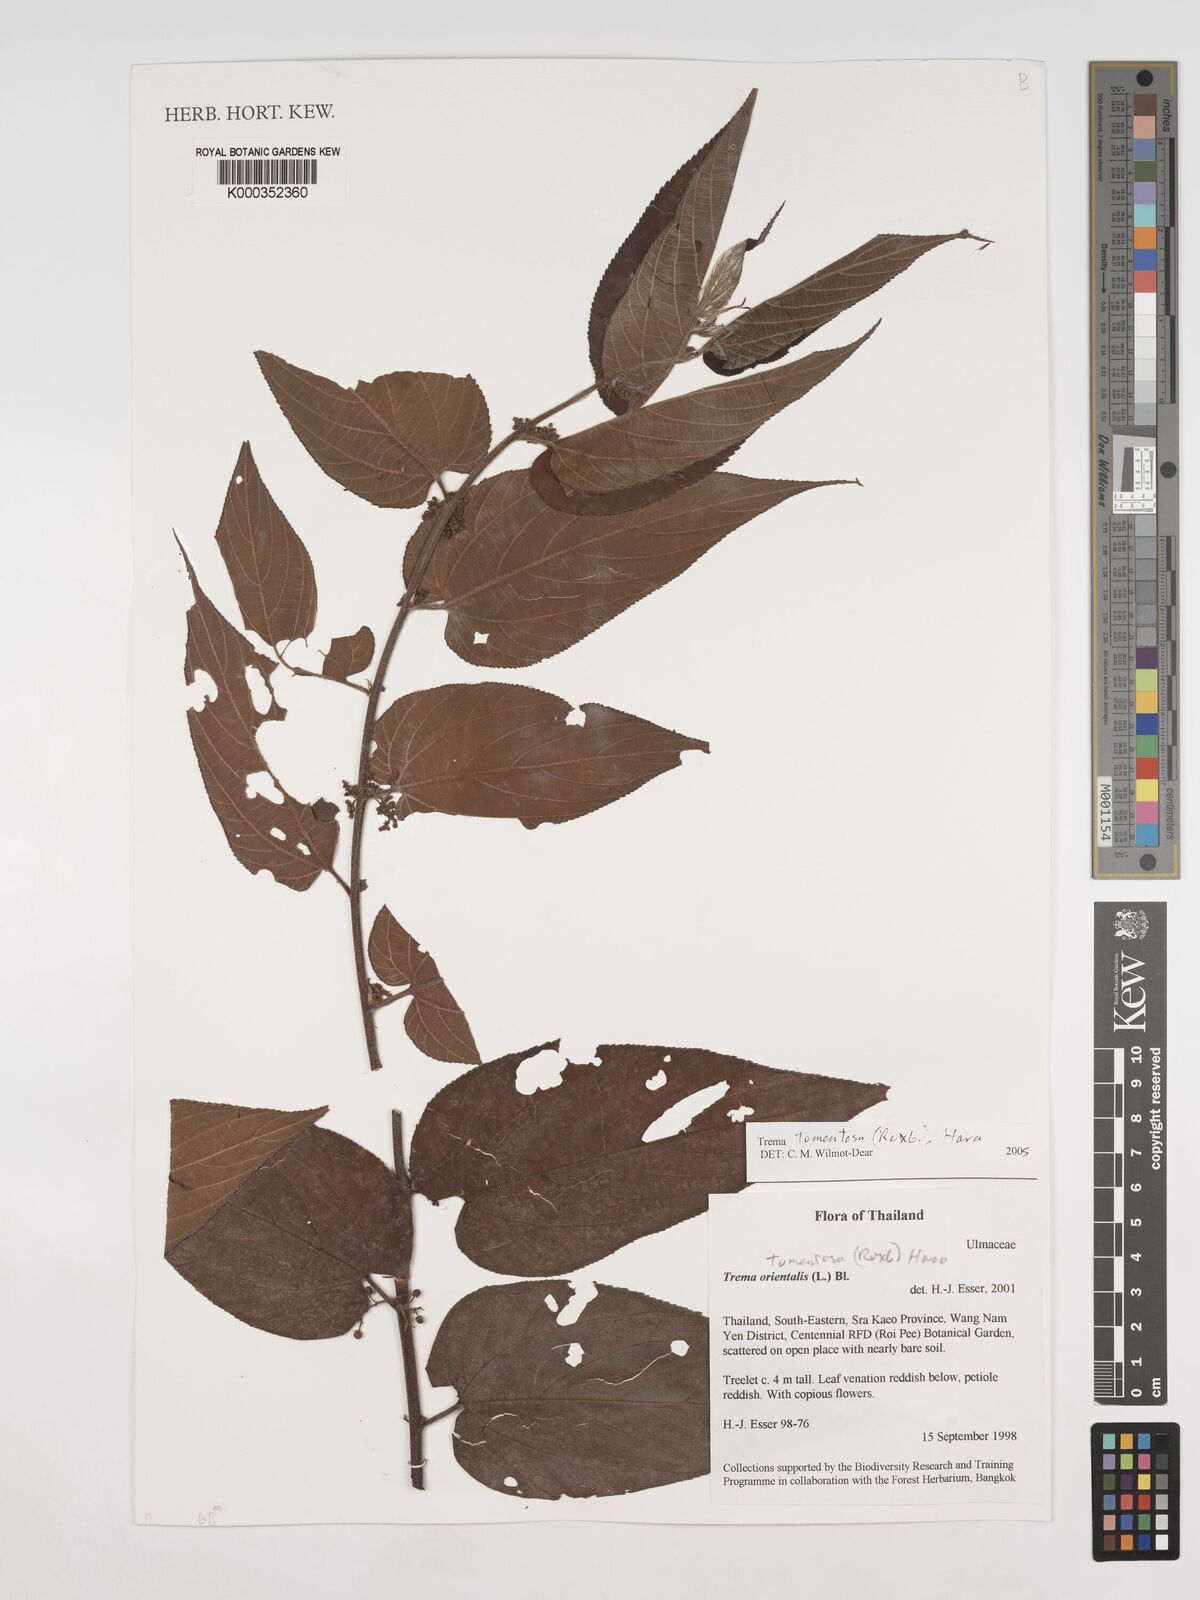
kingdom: Plantae
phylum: Tracheophyta
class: Magnoliopsida
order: Rosales
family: Cannabaceae
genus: Trema
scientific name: Trema tomentosum
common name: Peach-leaf-poisonbush
